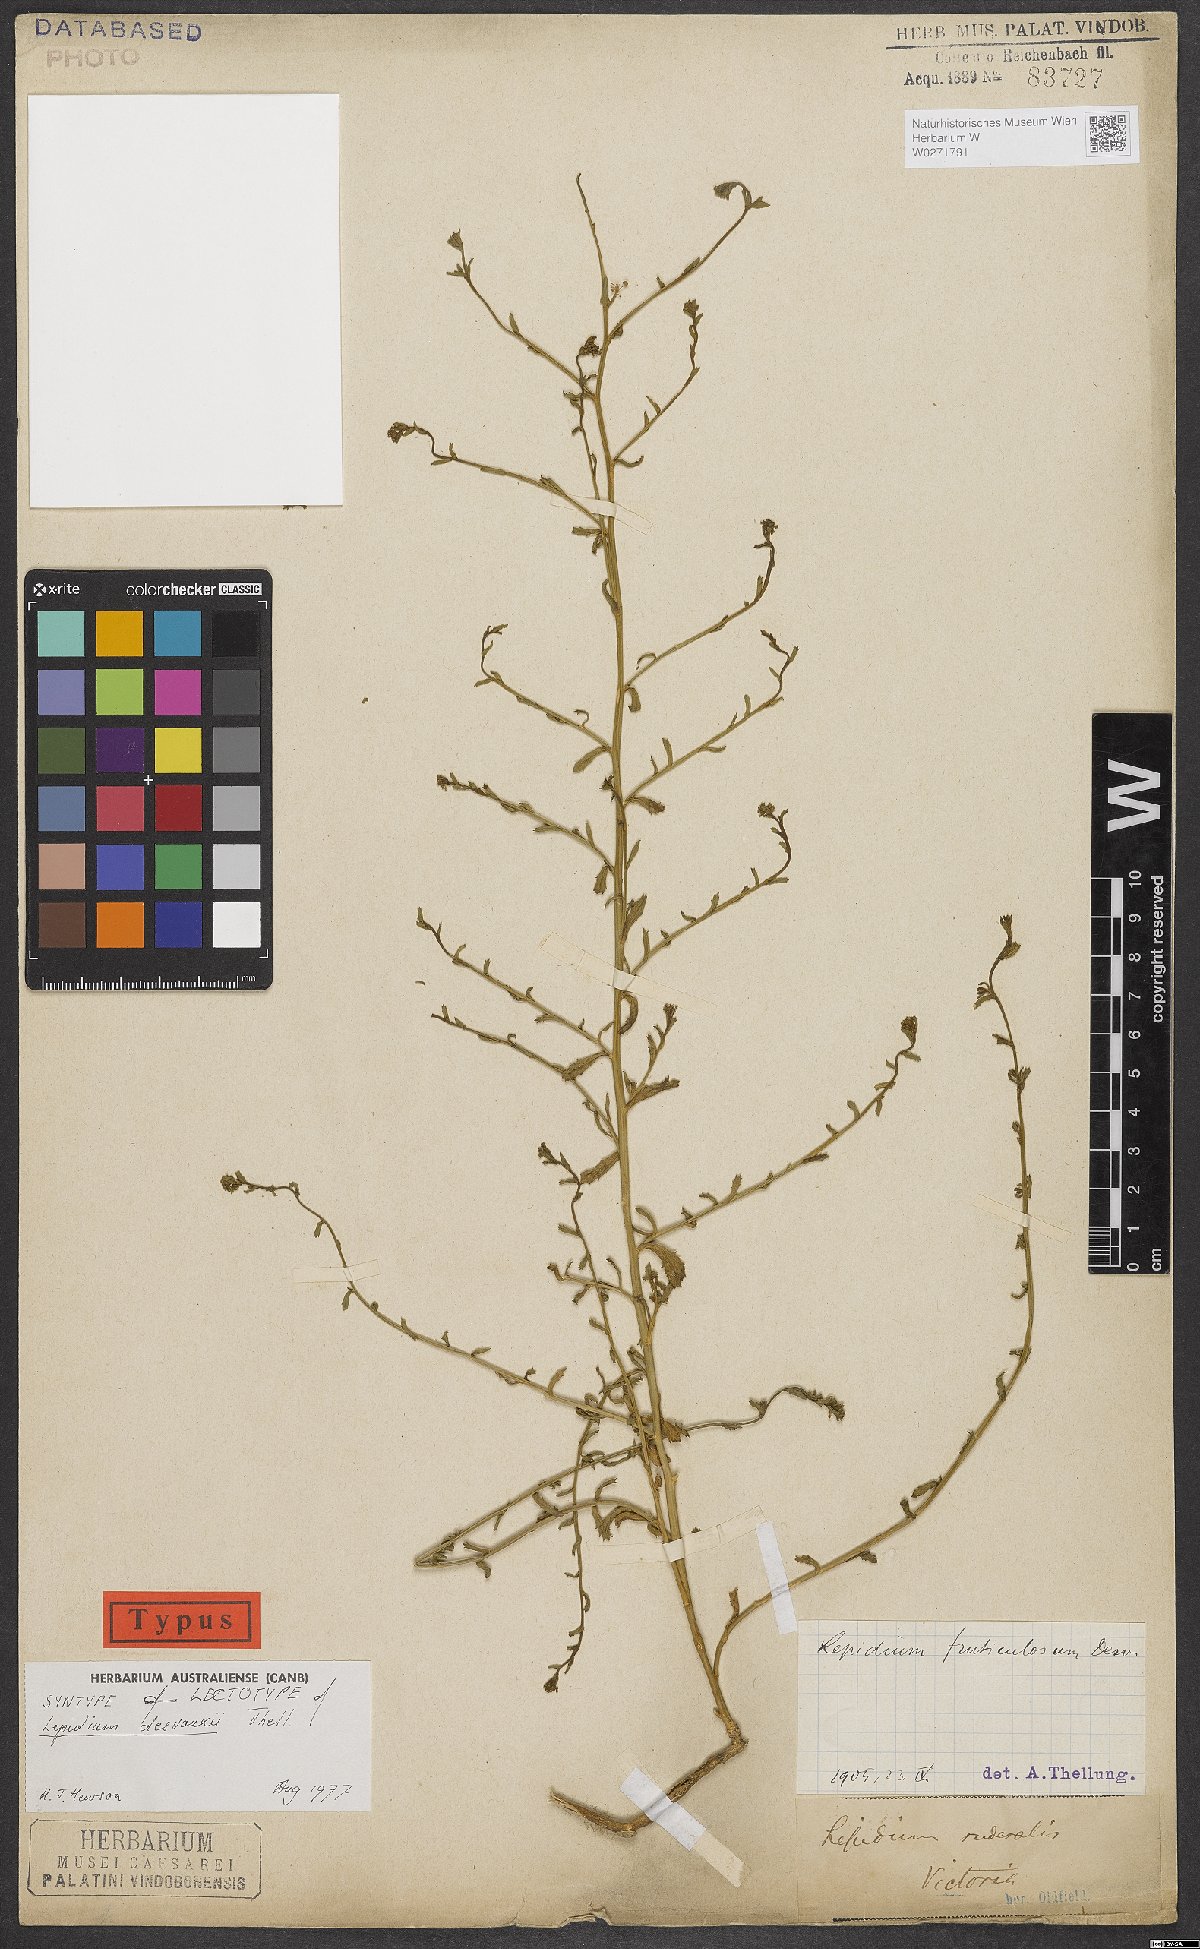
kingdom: Plantae
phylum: Tracheophyta
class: Magnoliopsida
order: Brassicales
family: Brassicaceae
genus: Lepidium
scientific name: Lepidium desvauxii
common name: Bushy pepperwort
